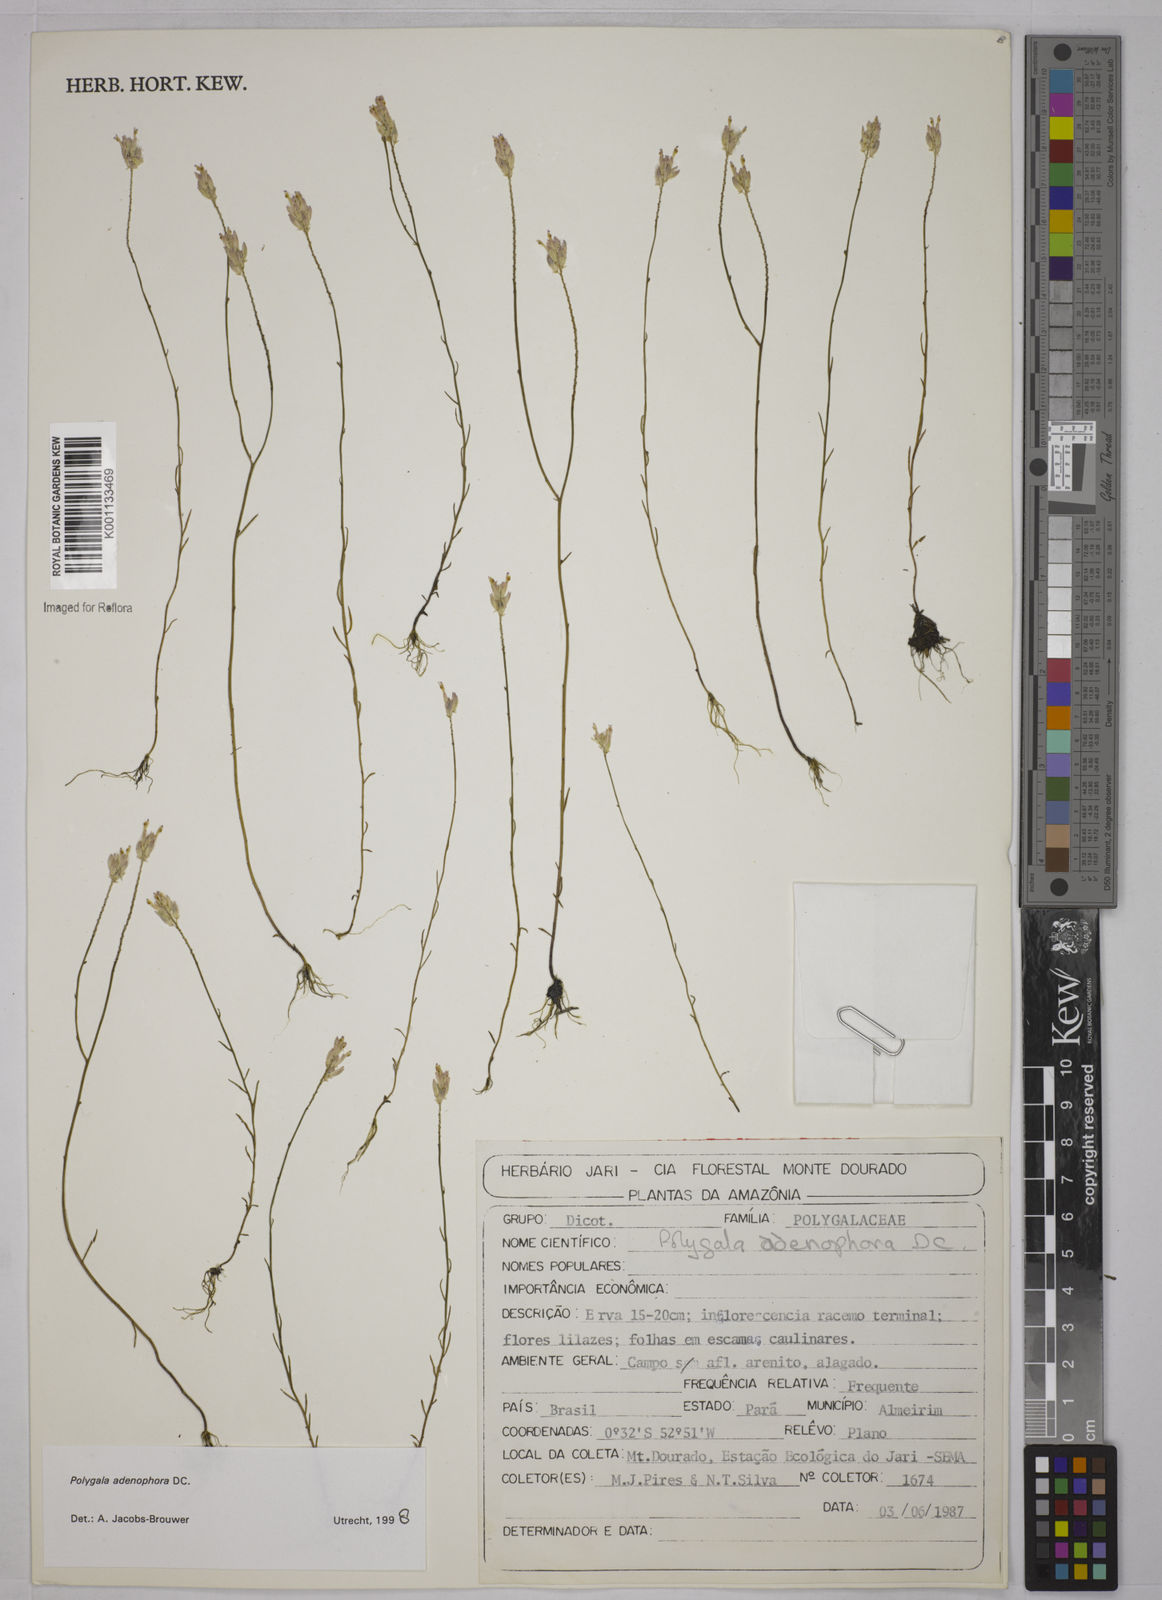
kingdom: Plantae
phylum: Tracheophyta
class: Magnoliopsida
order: Fabales
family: Polygalaceae
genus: Polygala
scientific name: Polygala adenophora
